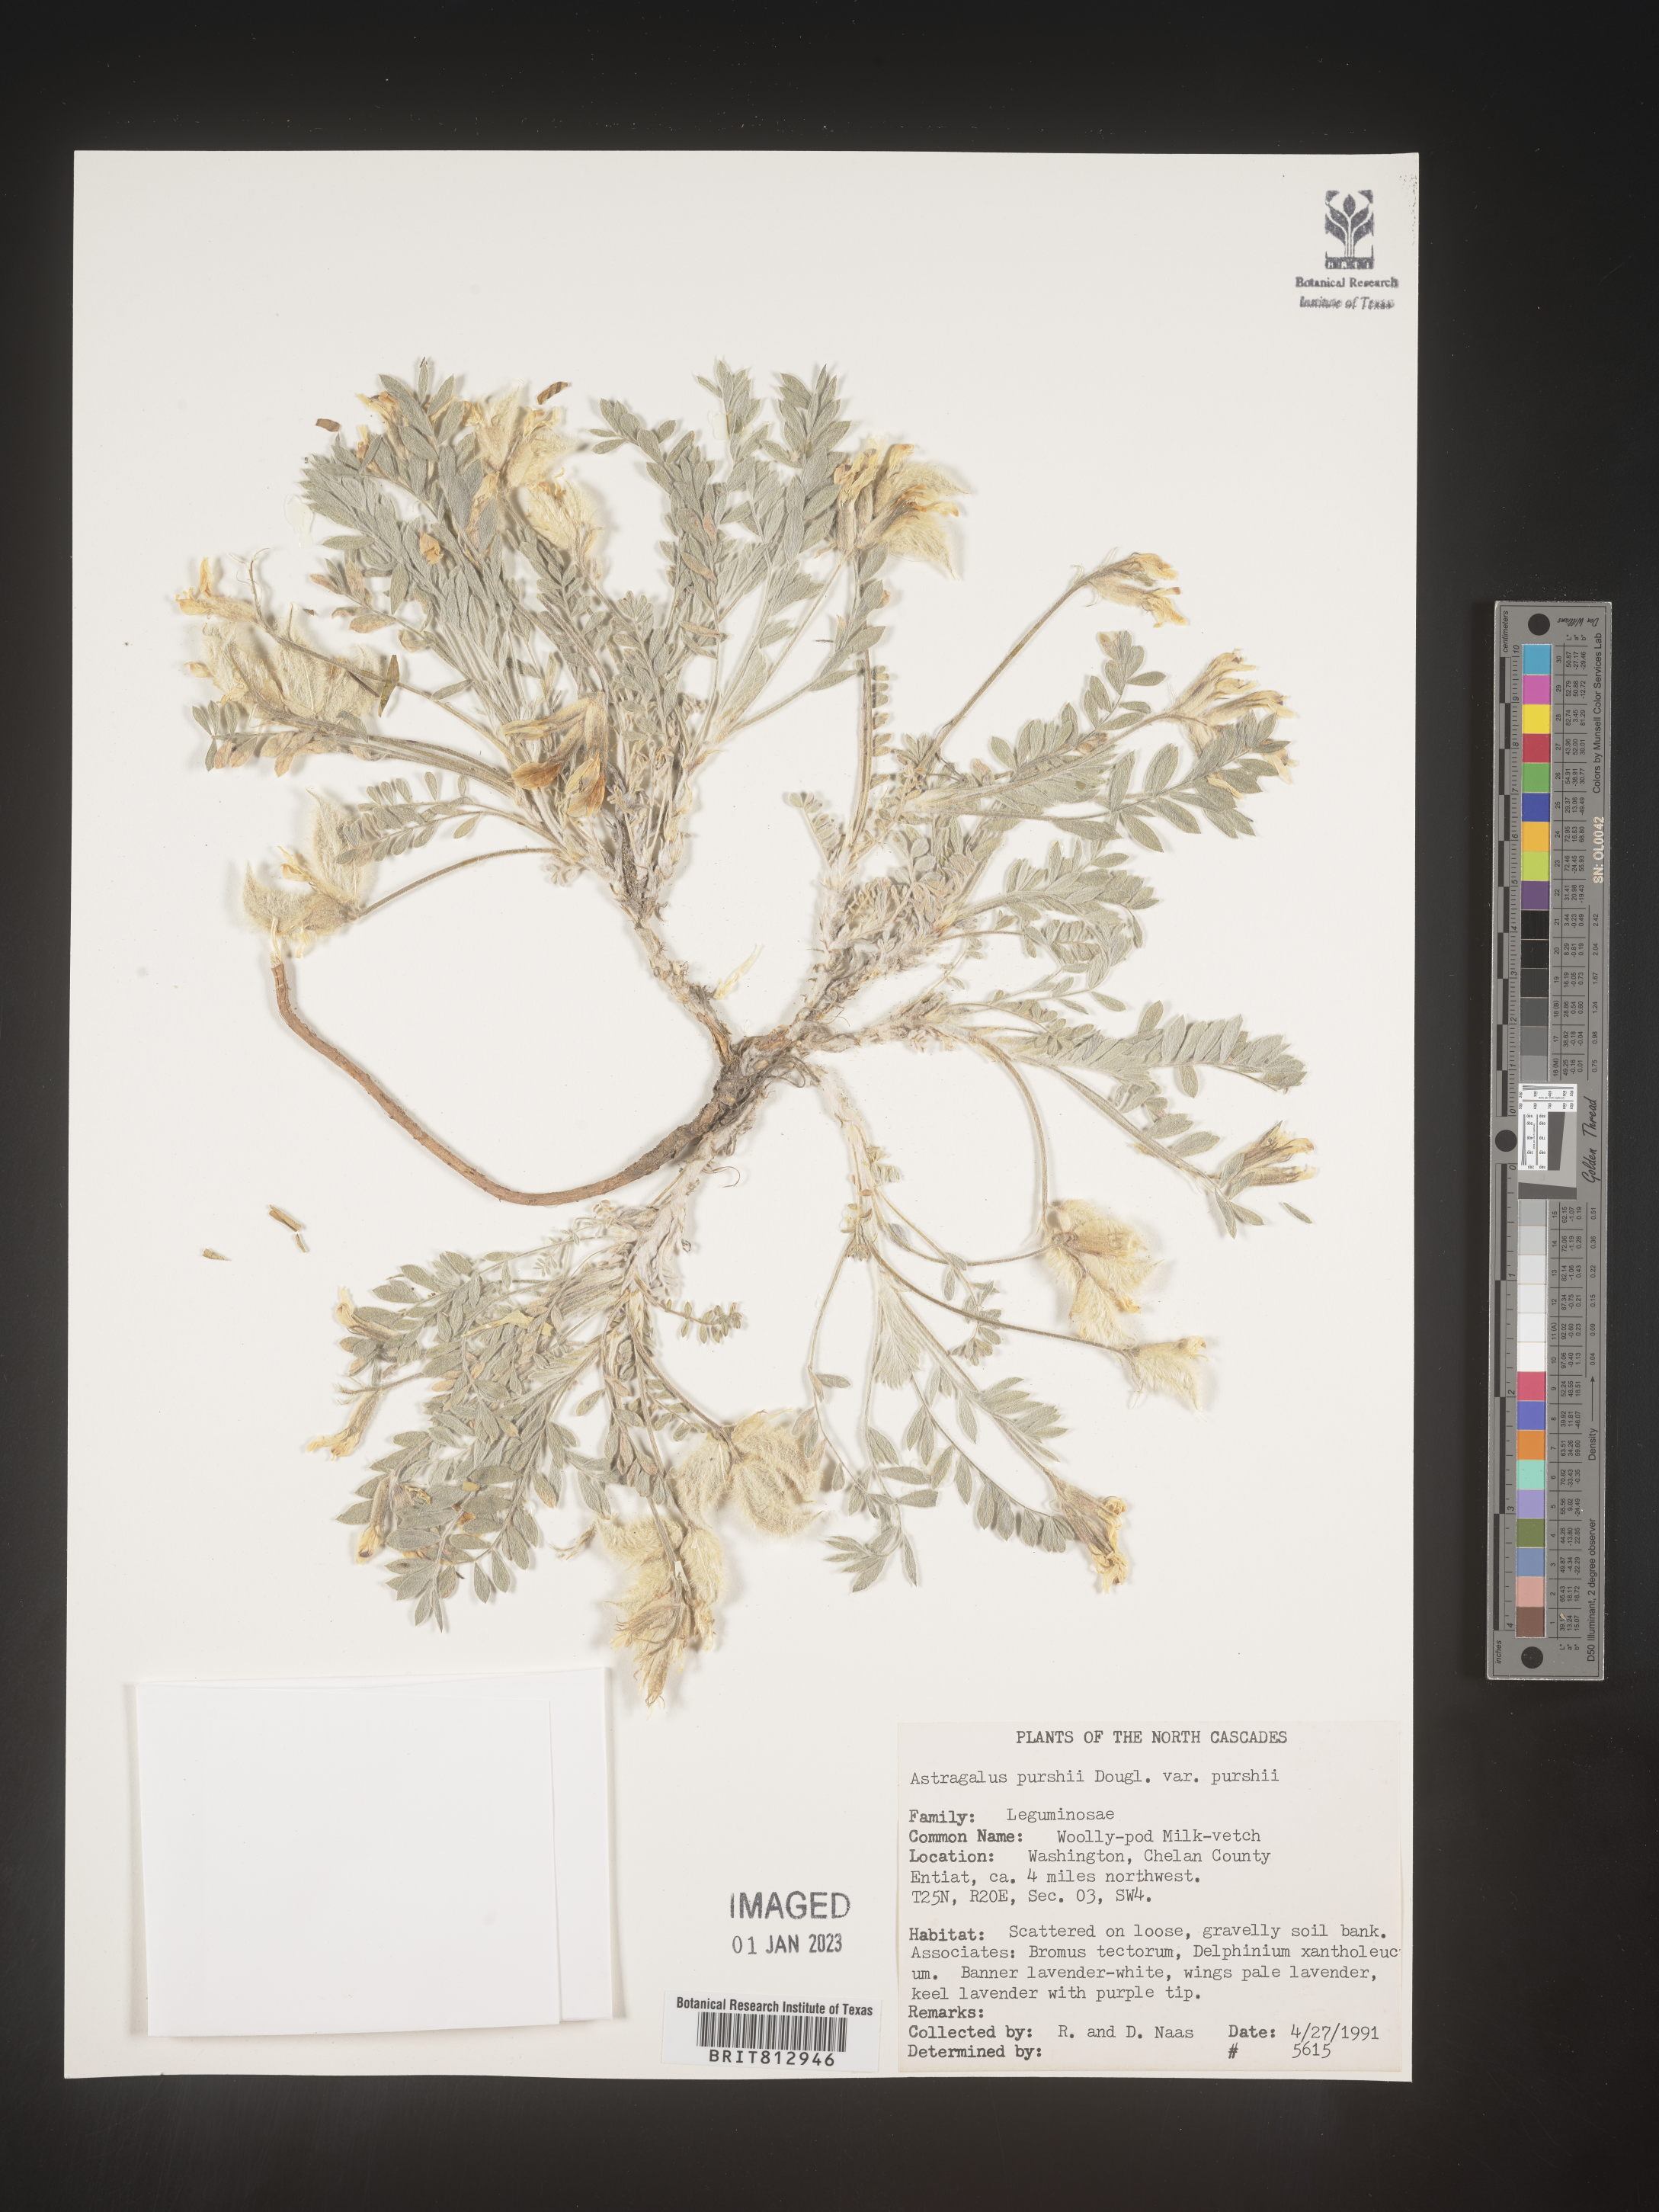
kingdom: Plantae
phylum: Tracheophyta
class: Magnoliopsida
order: Fabales
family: Fabaceae
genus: Astragalus
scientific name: Astragalus
